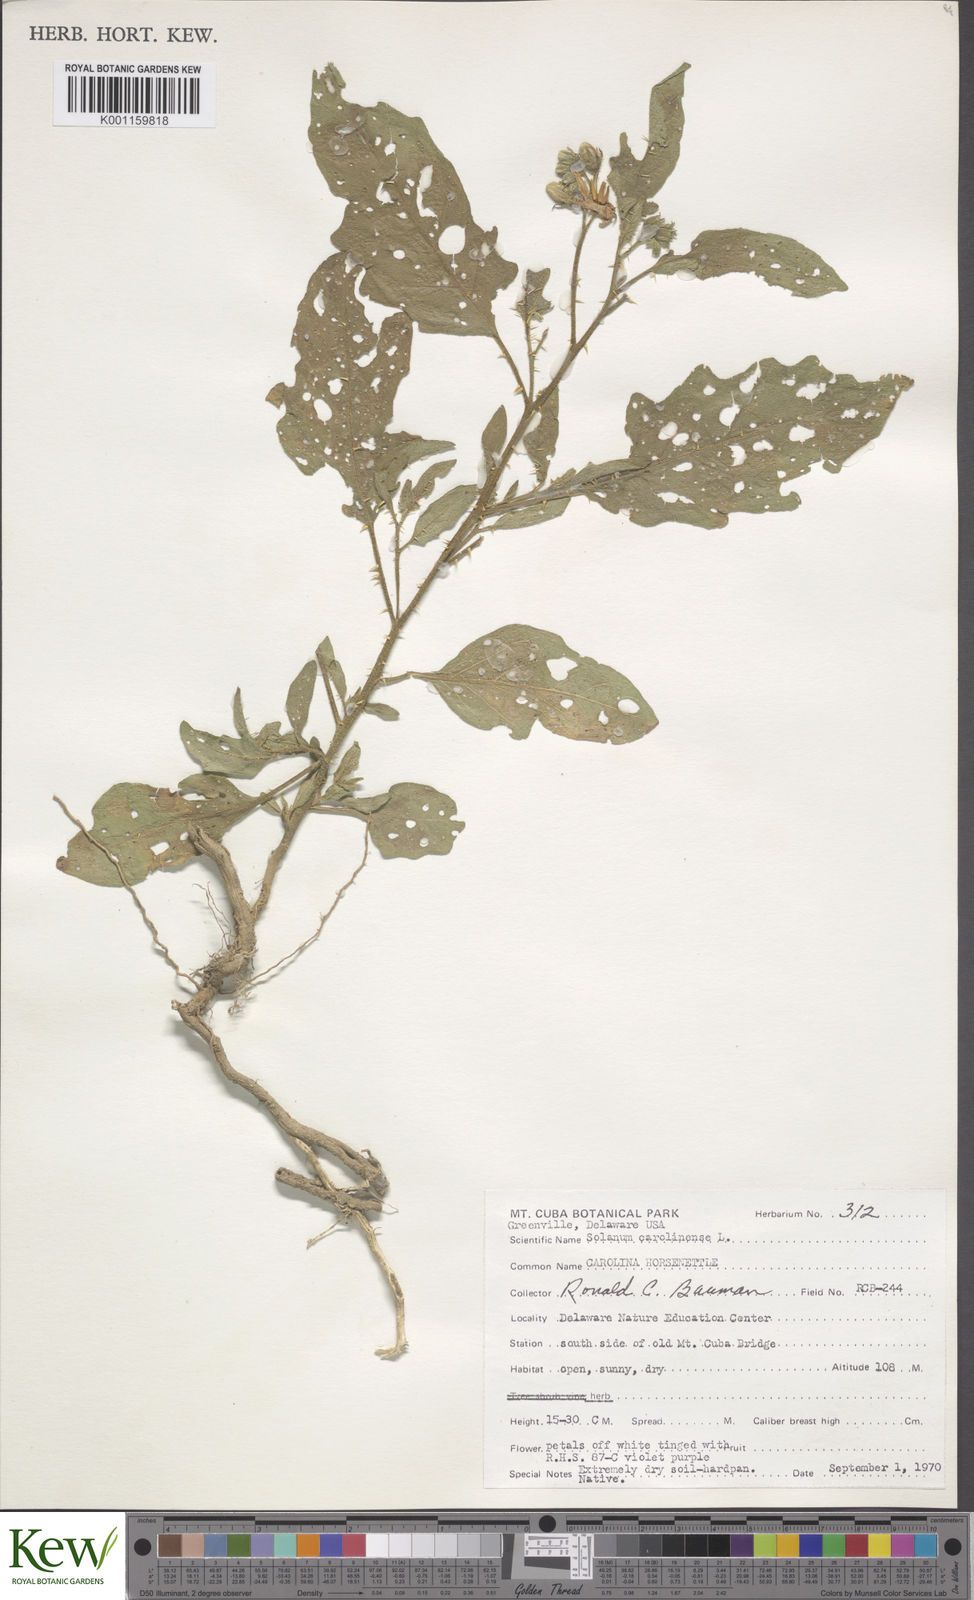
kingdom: Plantae
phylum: Tracheophyta
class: Magnoliopsida
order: Solanales
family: Solanaceae
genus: Solanum
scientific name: Solanum carolinense
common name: Horse-nettle
